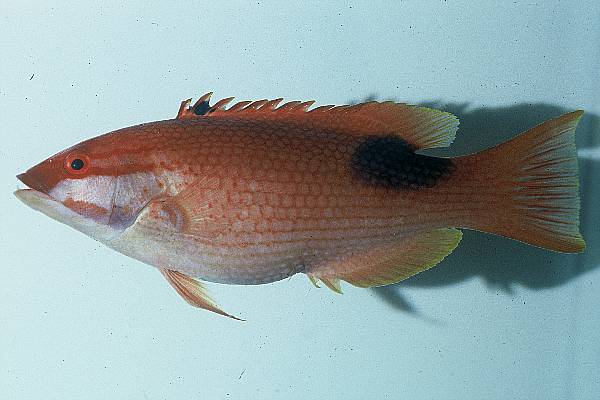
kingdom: Animalia
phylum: Chordata
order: Perciformes
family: Labridae
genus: Bodianus
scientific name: Bodianus bilunulatus
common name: Tarry hogfish
